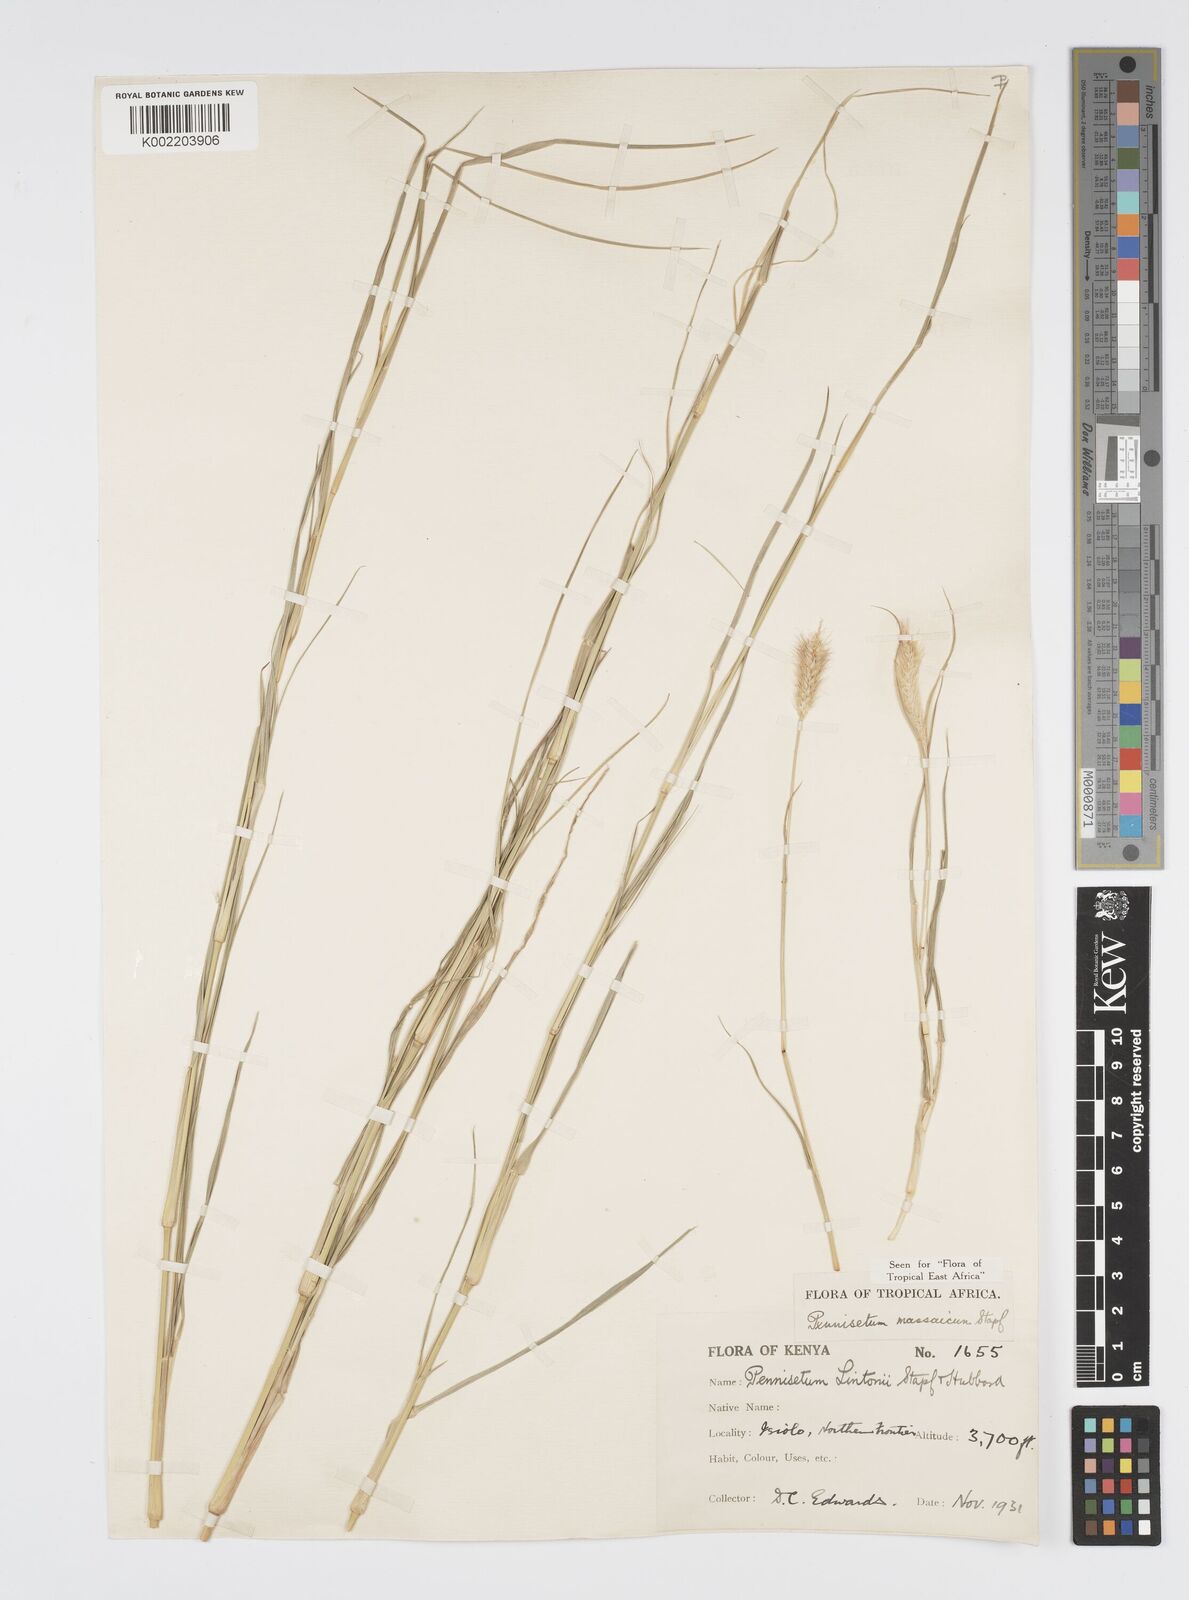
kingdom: Plantae
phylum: Tracheophyta
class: Liliopsida
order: Poales
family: Poaceae
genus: Cenchrus
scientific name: Cenchrus massaicus
